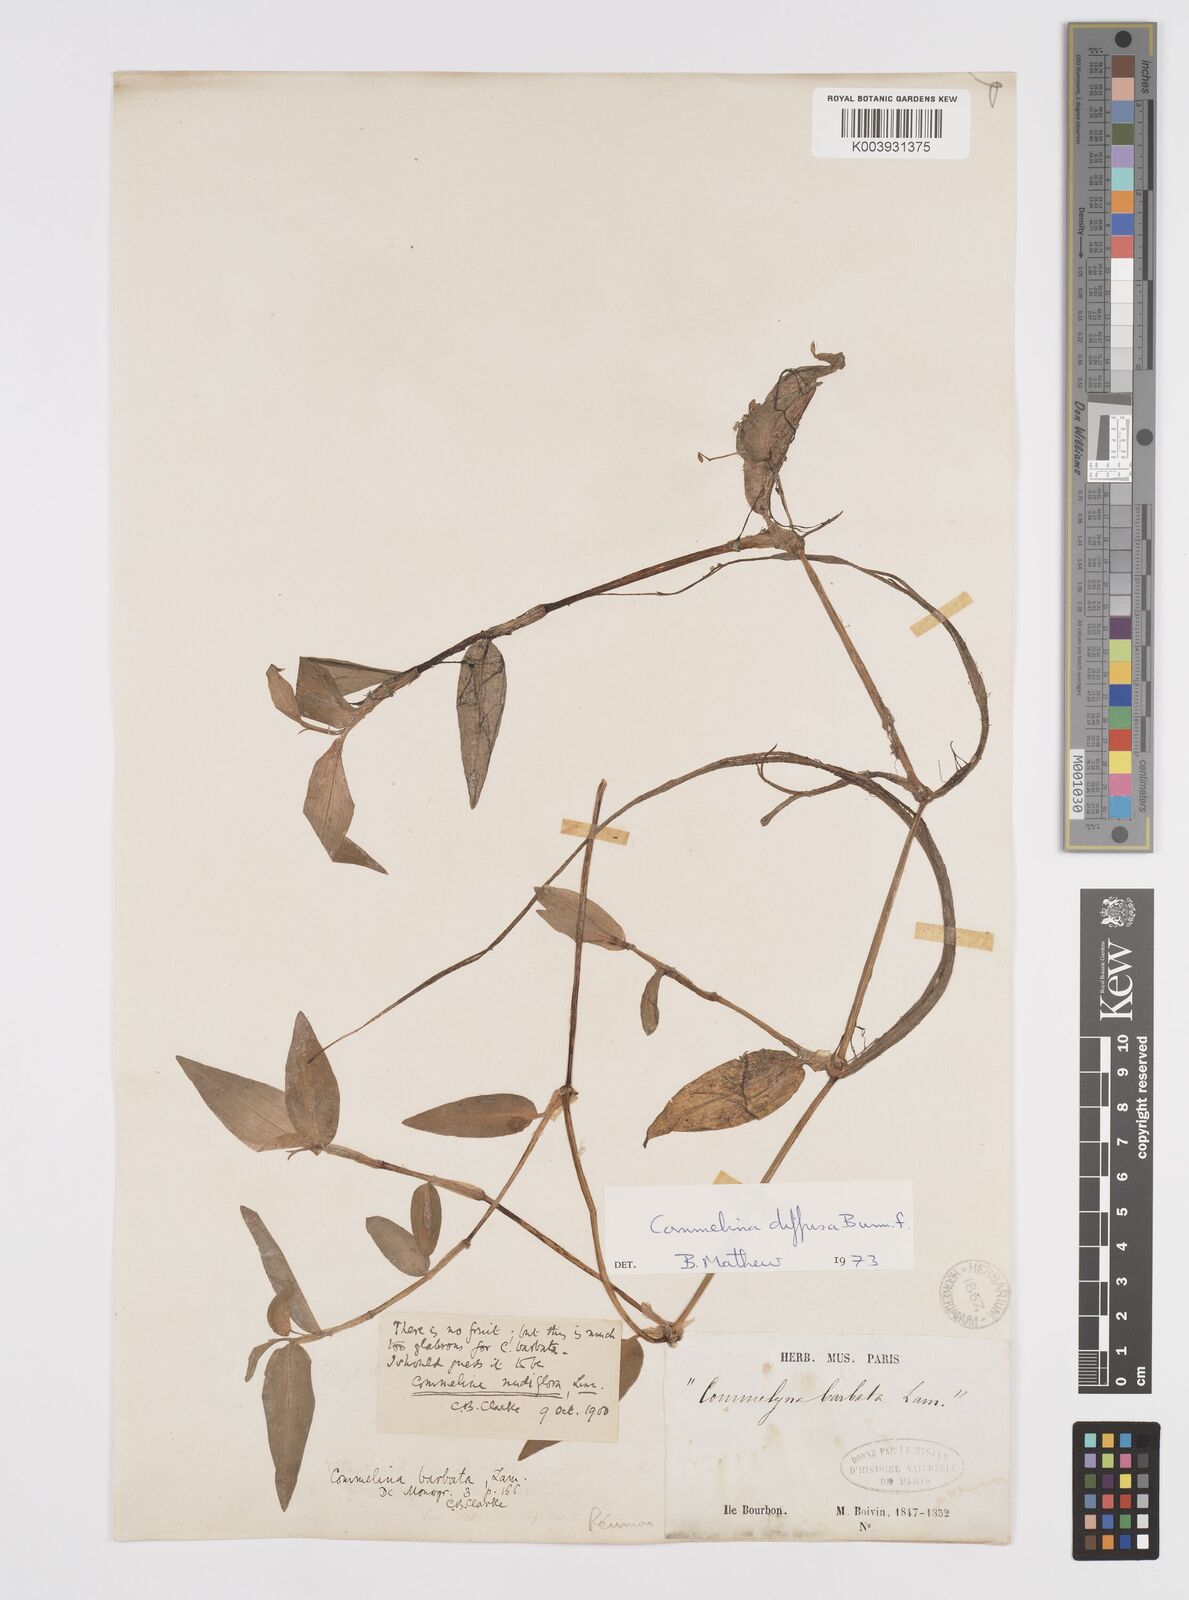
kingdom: Plantae
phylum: Tracheophyta
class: Liliopsida
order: Commelinales
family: Commelinaceae
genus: Murdannia
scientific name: Murdannia nudiflora
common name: Nakedstem dewflower
